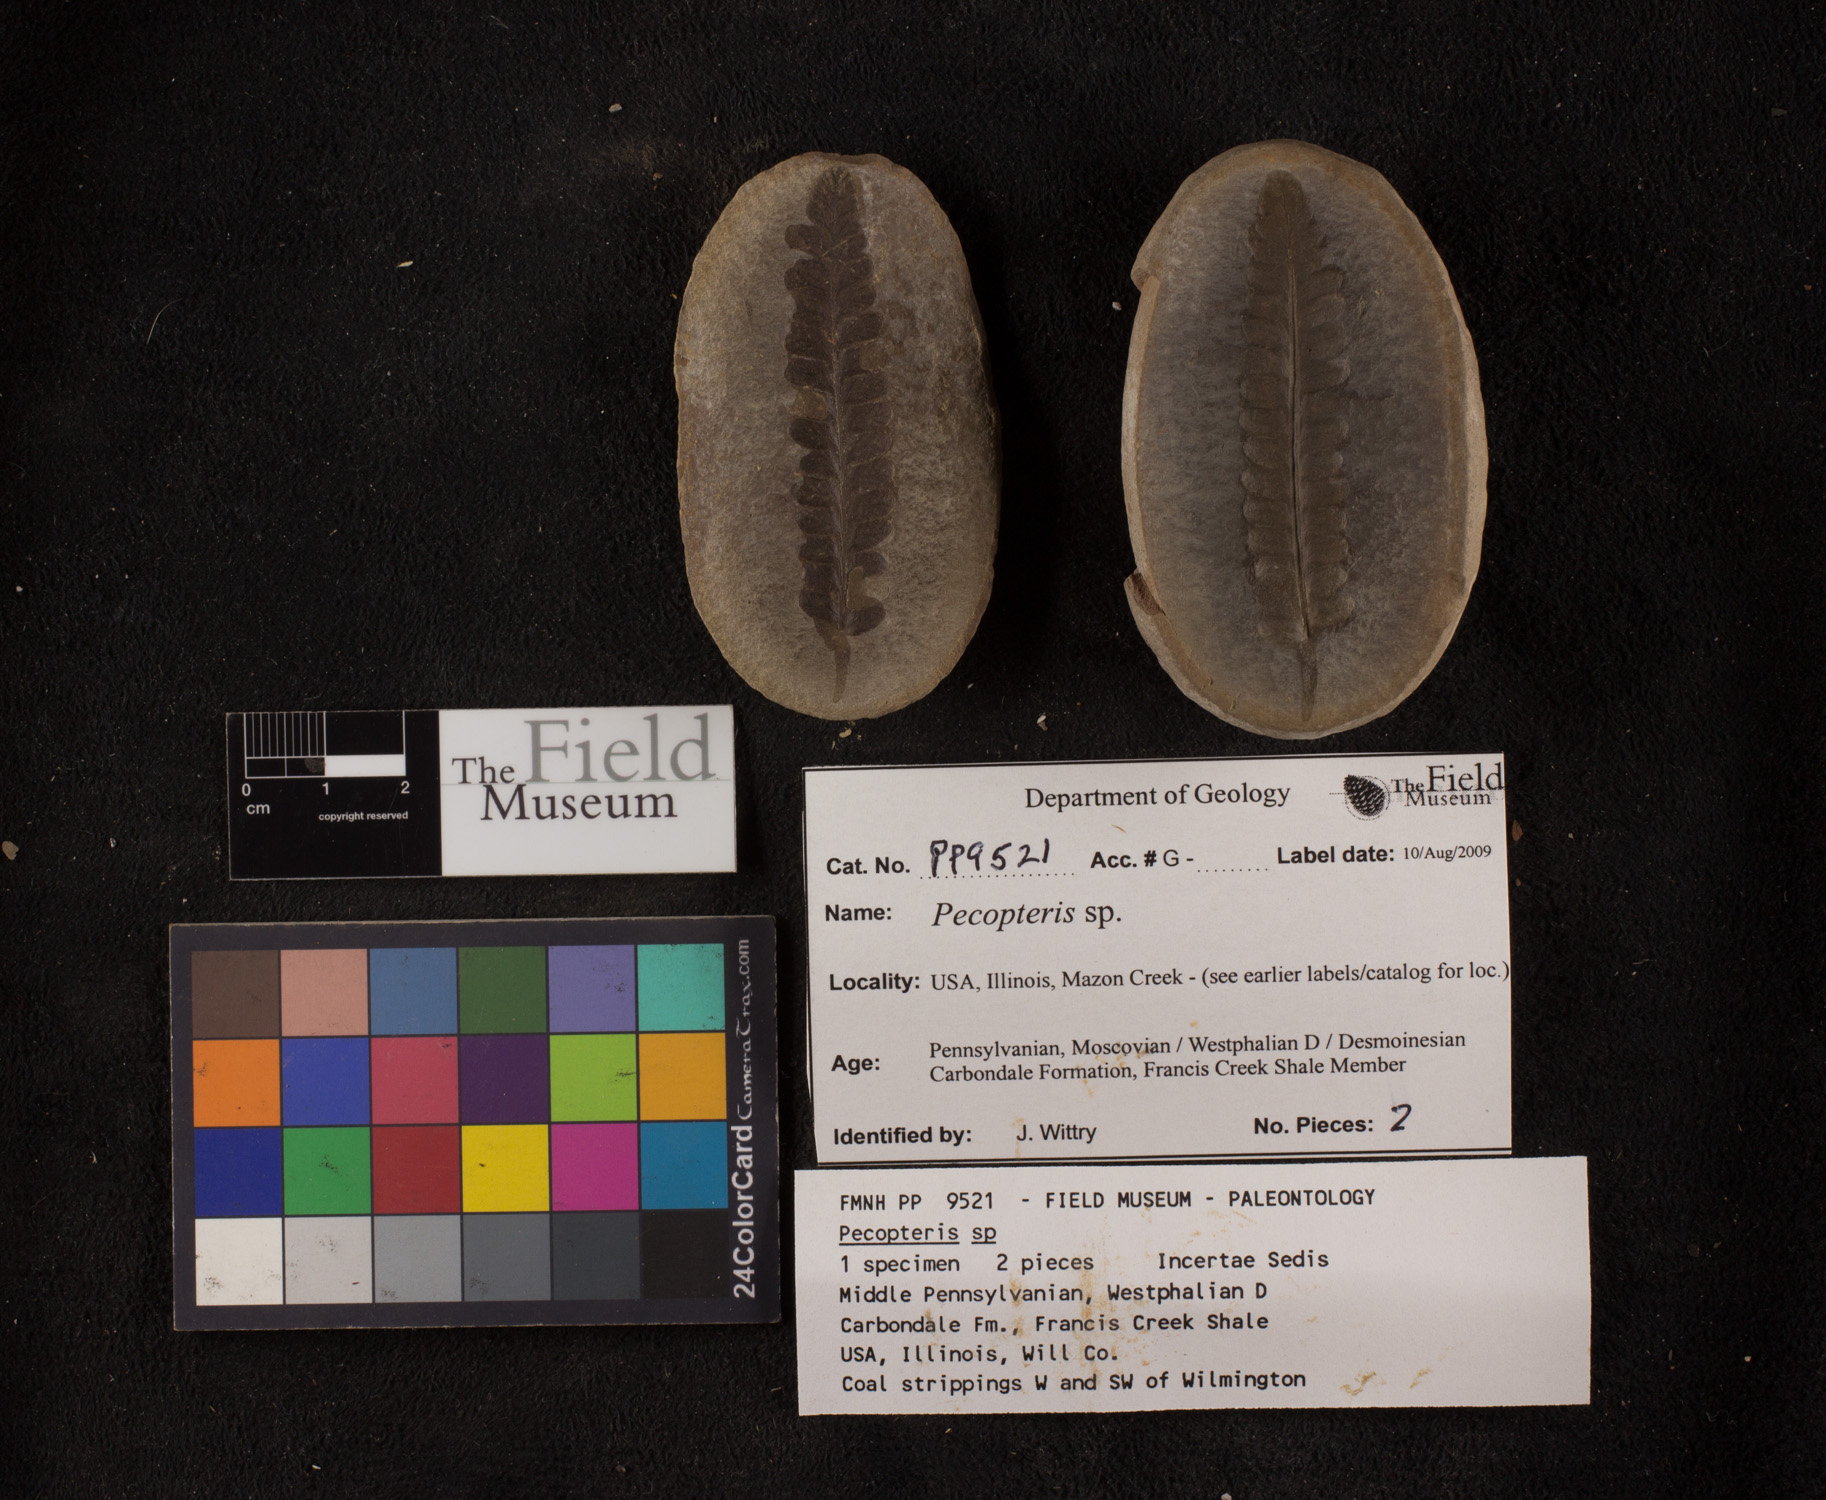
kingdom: Plantae
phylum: Tracheophyta
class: Polypodiopsida
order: Marattiales
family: Asterothecaceae
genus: Pecopteris
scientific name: Pecopteris
